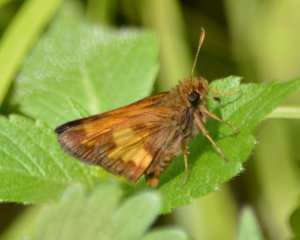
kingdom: Animalia
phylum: Arthropoda
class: Insecta
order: Lepidoptera
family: Hesperiidae
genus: Lon
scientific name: Lon hobomok
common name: Hobomok Skipper
